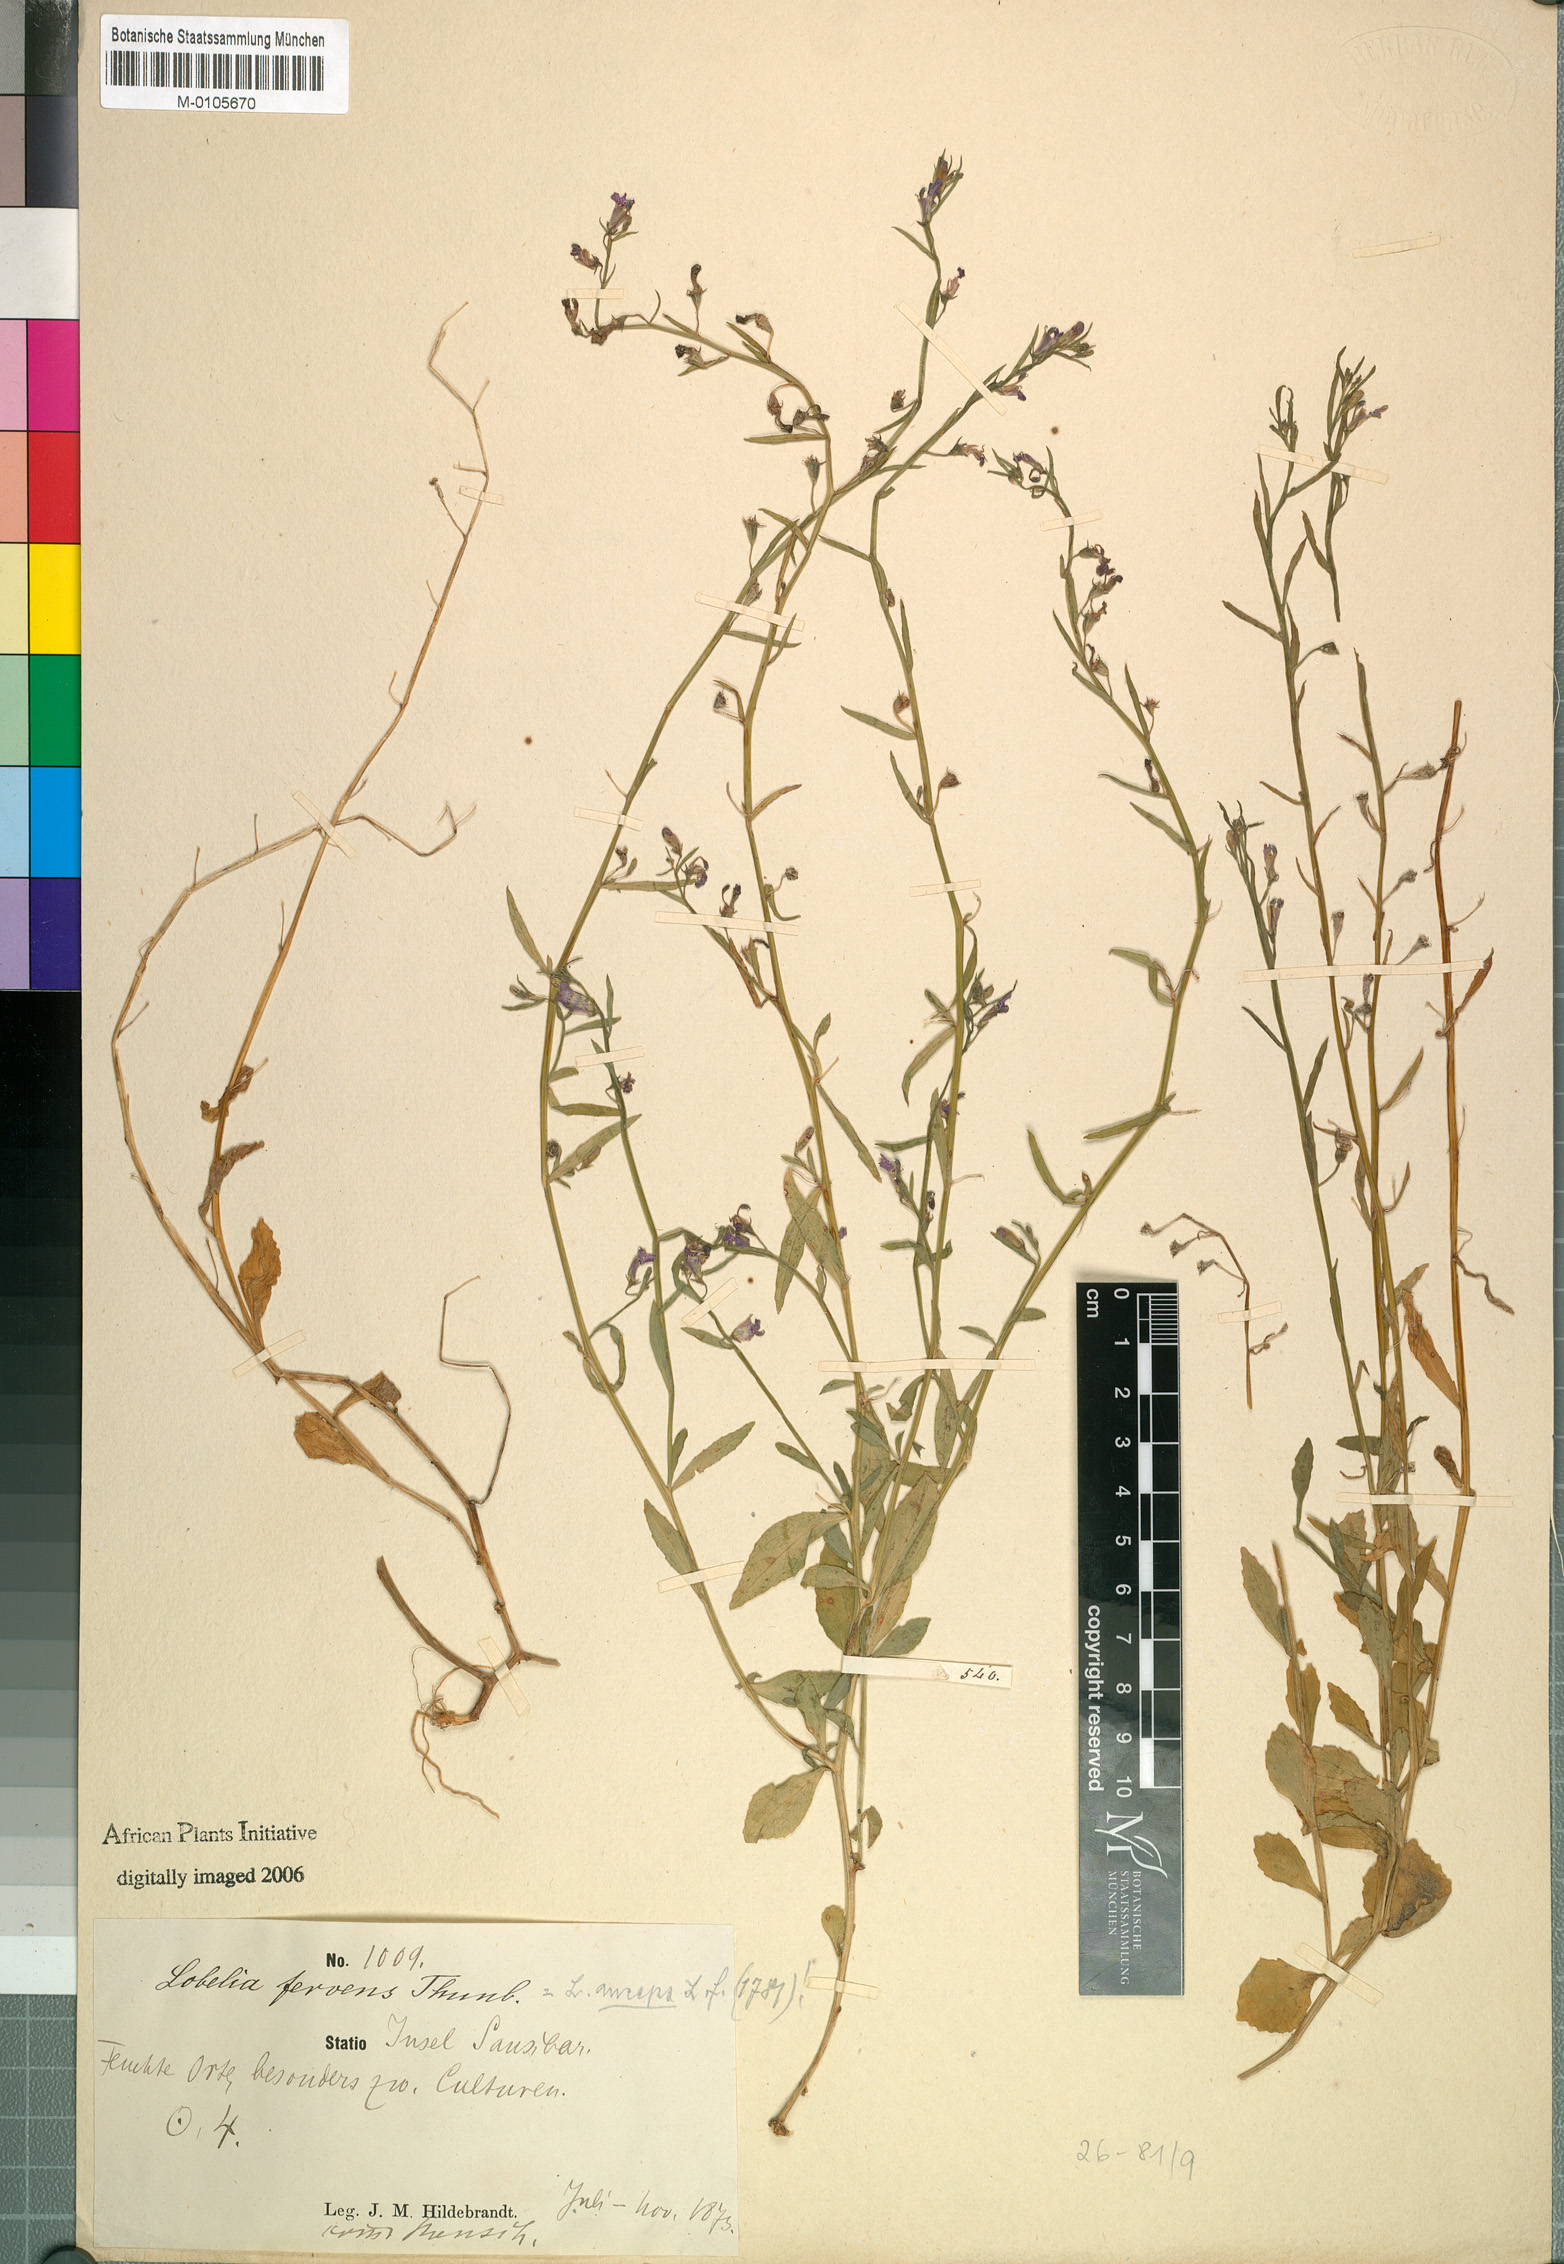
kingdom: Plantae
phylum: Tracheophyta
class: Magnoliopsida
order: Asterales
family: Campanulaceae
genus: Lobelia
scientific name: Lobelia anceps
